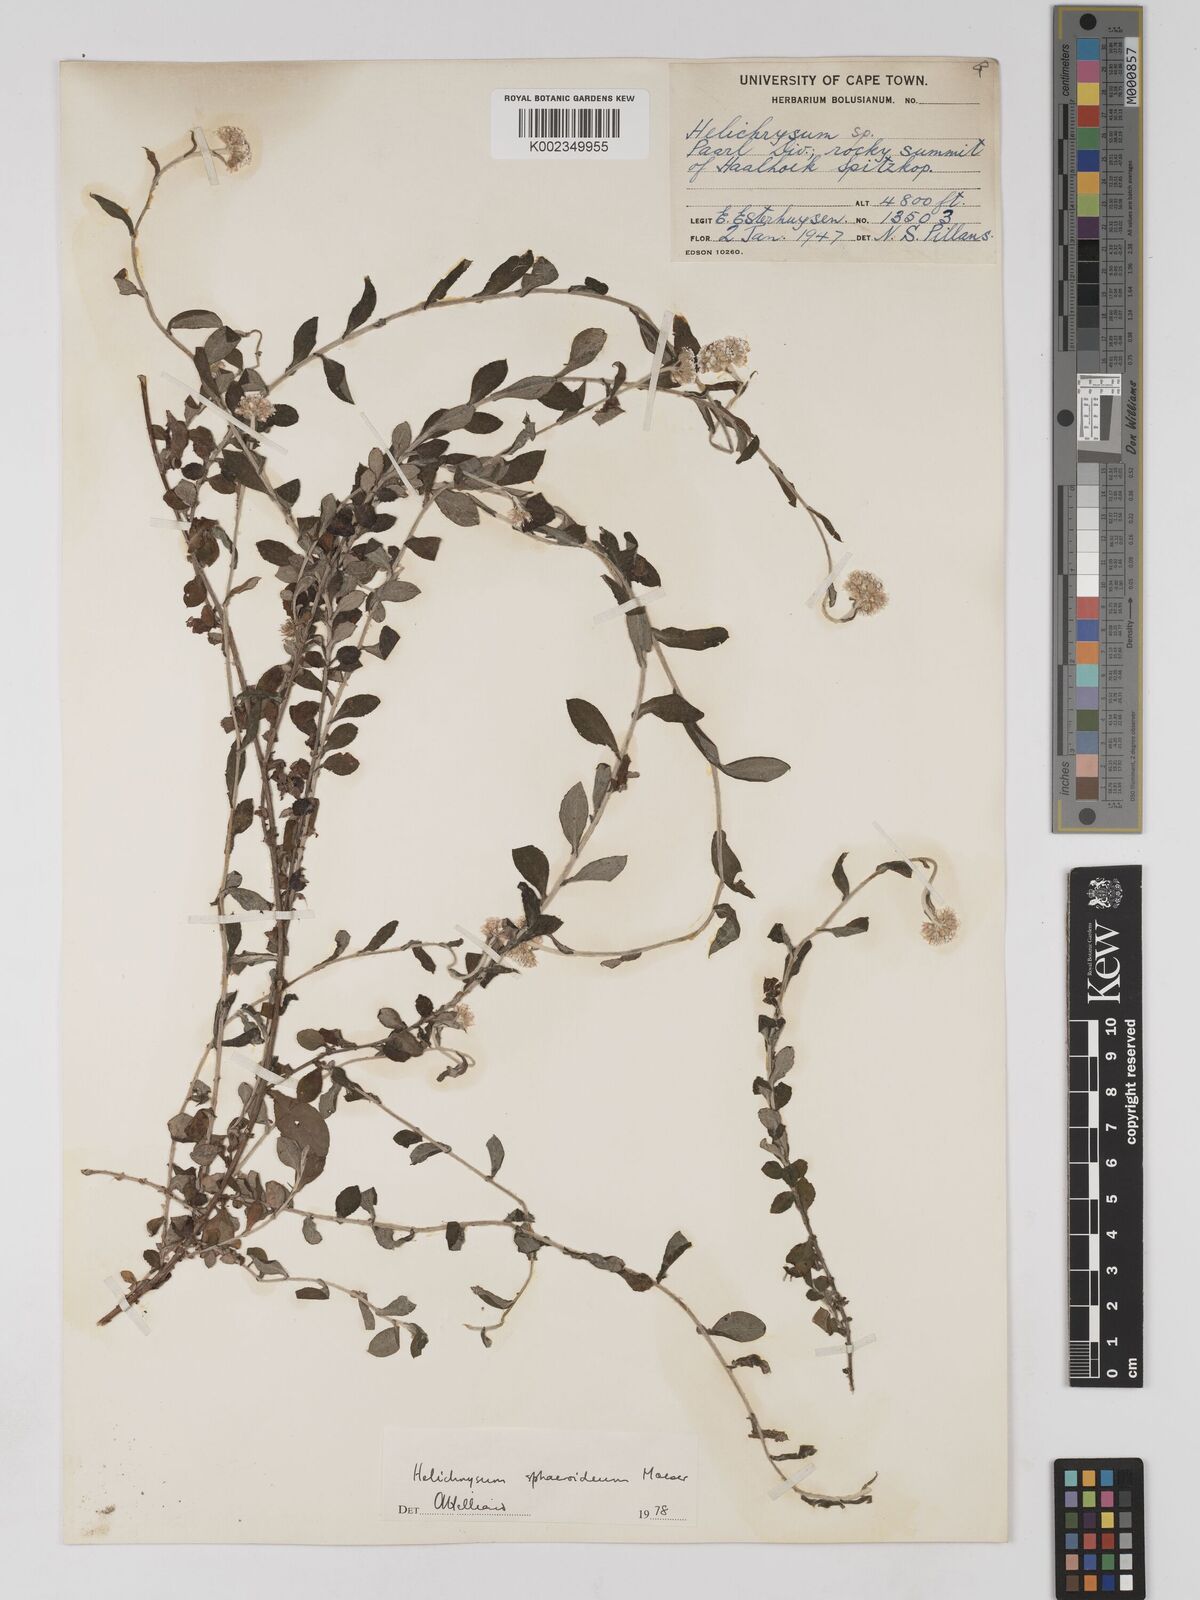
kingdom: Plantae
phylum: Tracheophyta
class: Magnoliopsida
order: Asterales
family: Asteraceae
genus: Helichrysum
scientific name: Helichrysum sphaeroideum
